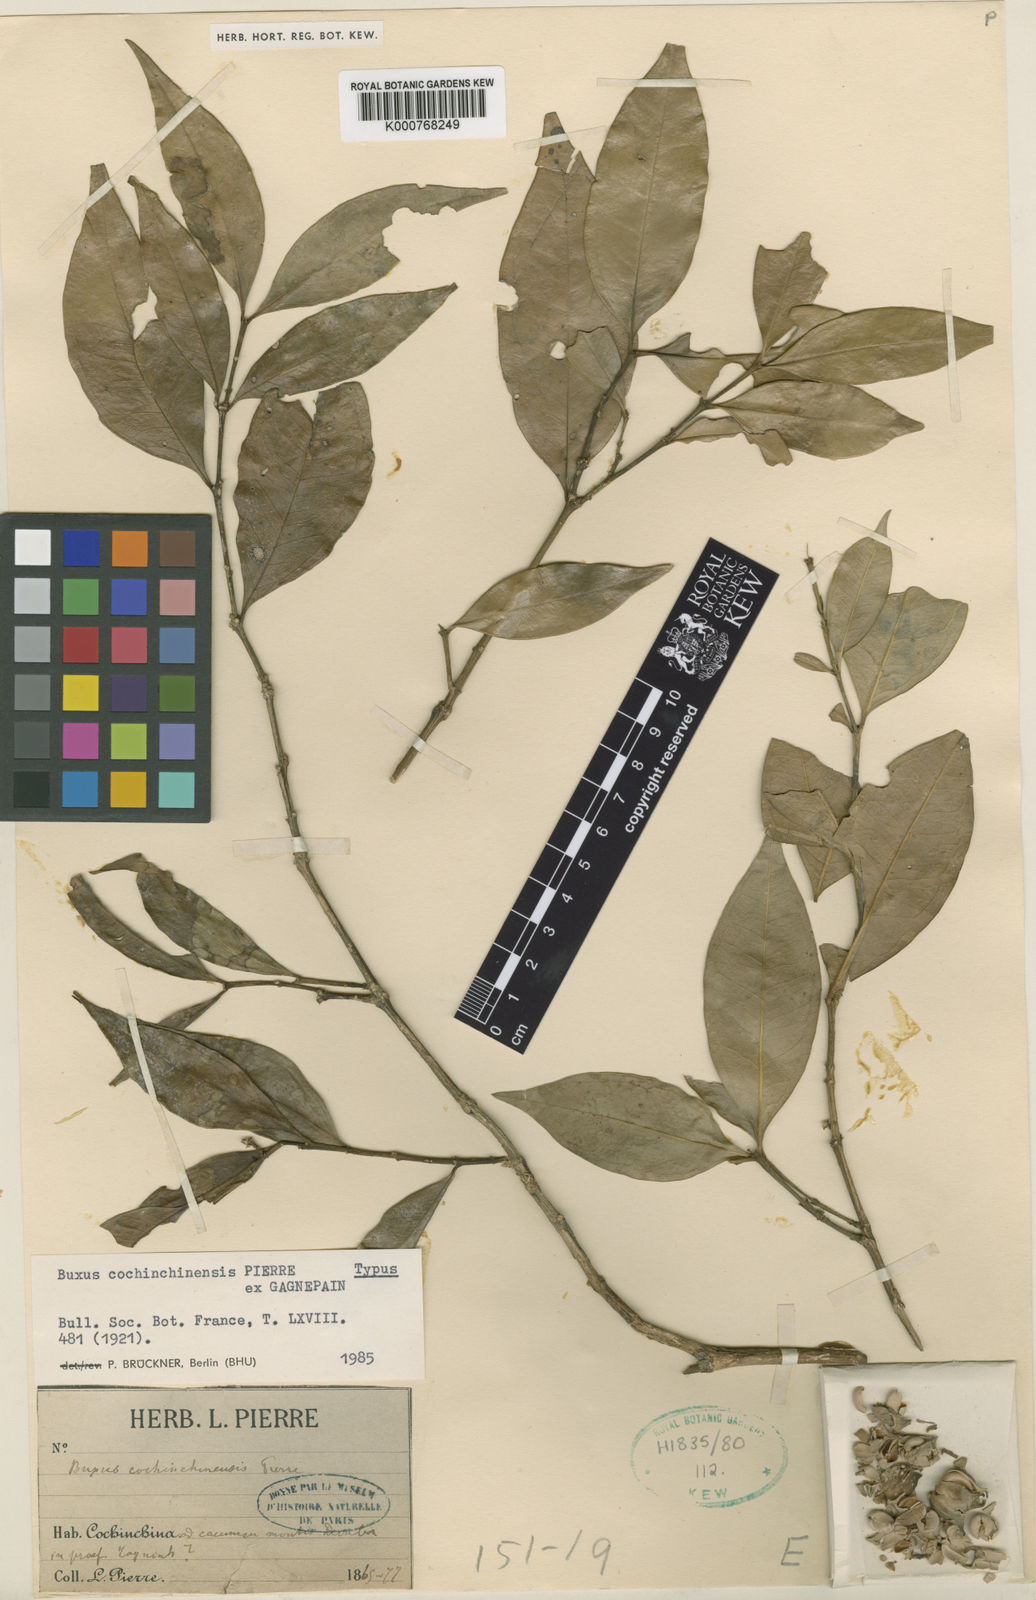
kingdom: Plantae
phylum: Tracheophyta
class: Magnoliopsida
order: Buxales
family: Buxaceae
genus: Buxus
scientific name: Buxus cochinchinensis
